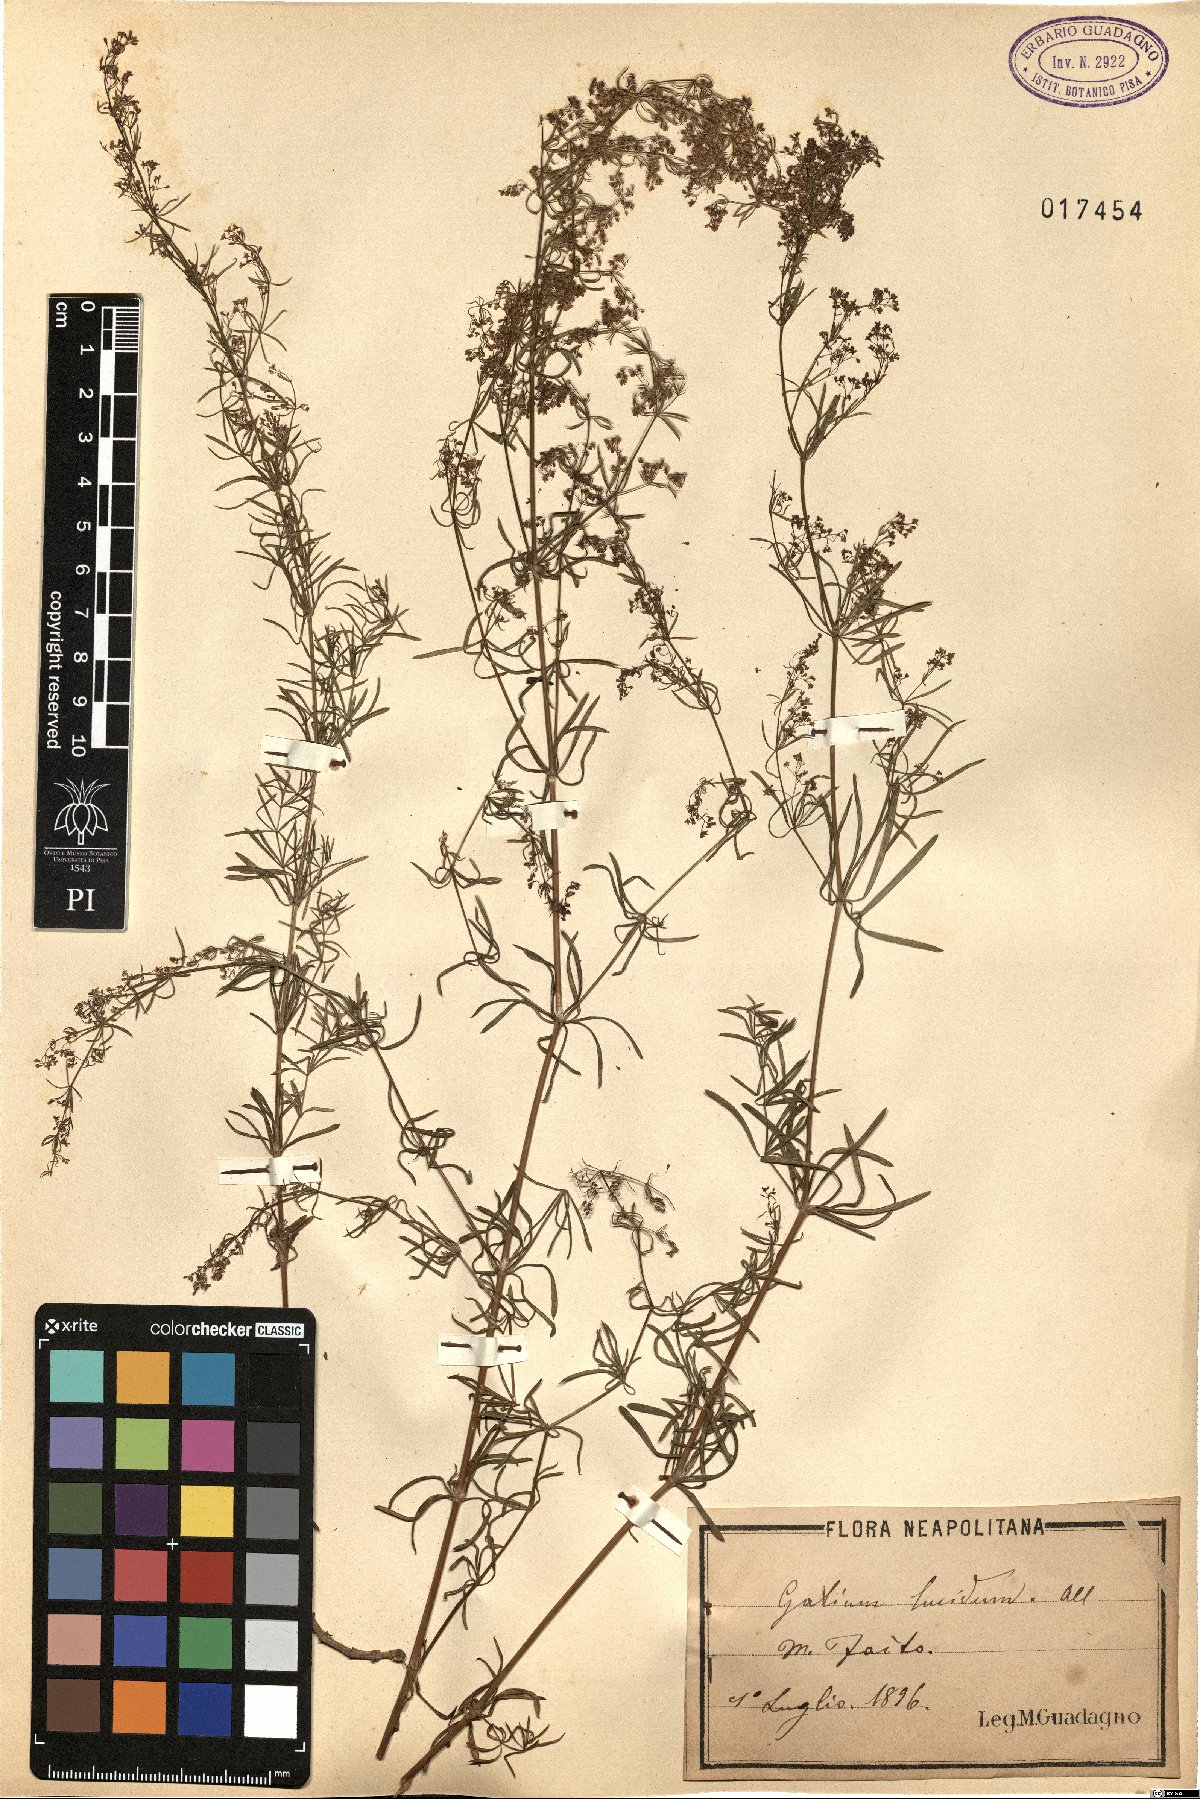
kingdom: Plantae
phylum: Tracheophyta
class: Magnoliopsida
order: Gentianales
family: Rubiaceae
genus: Galium
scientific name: Galium lucidum
